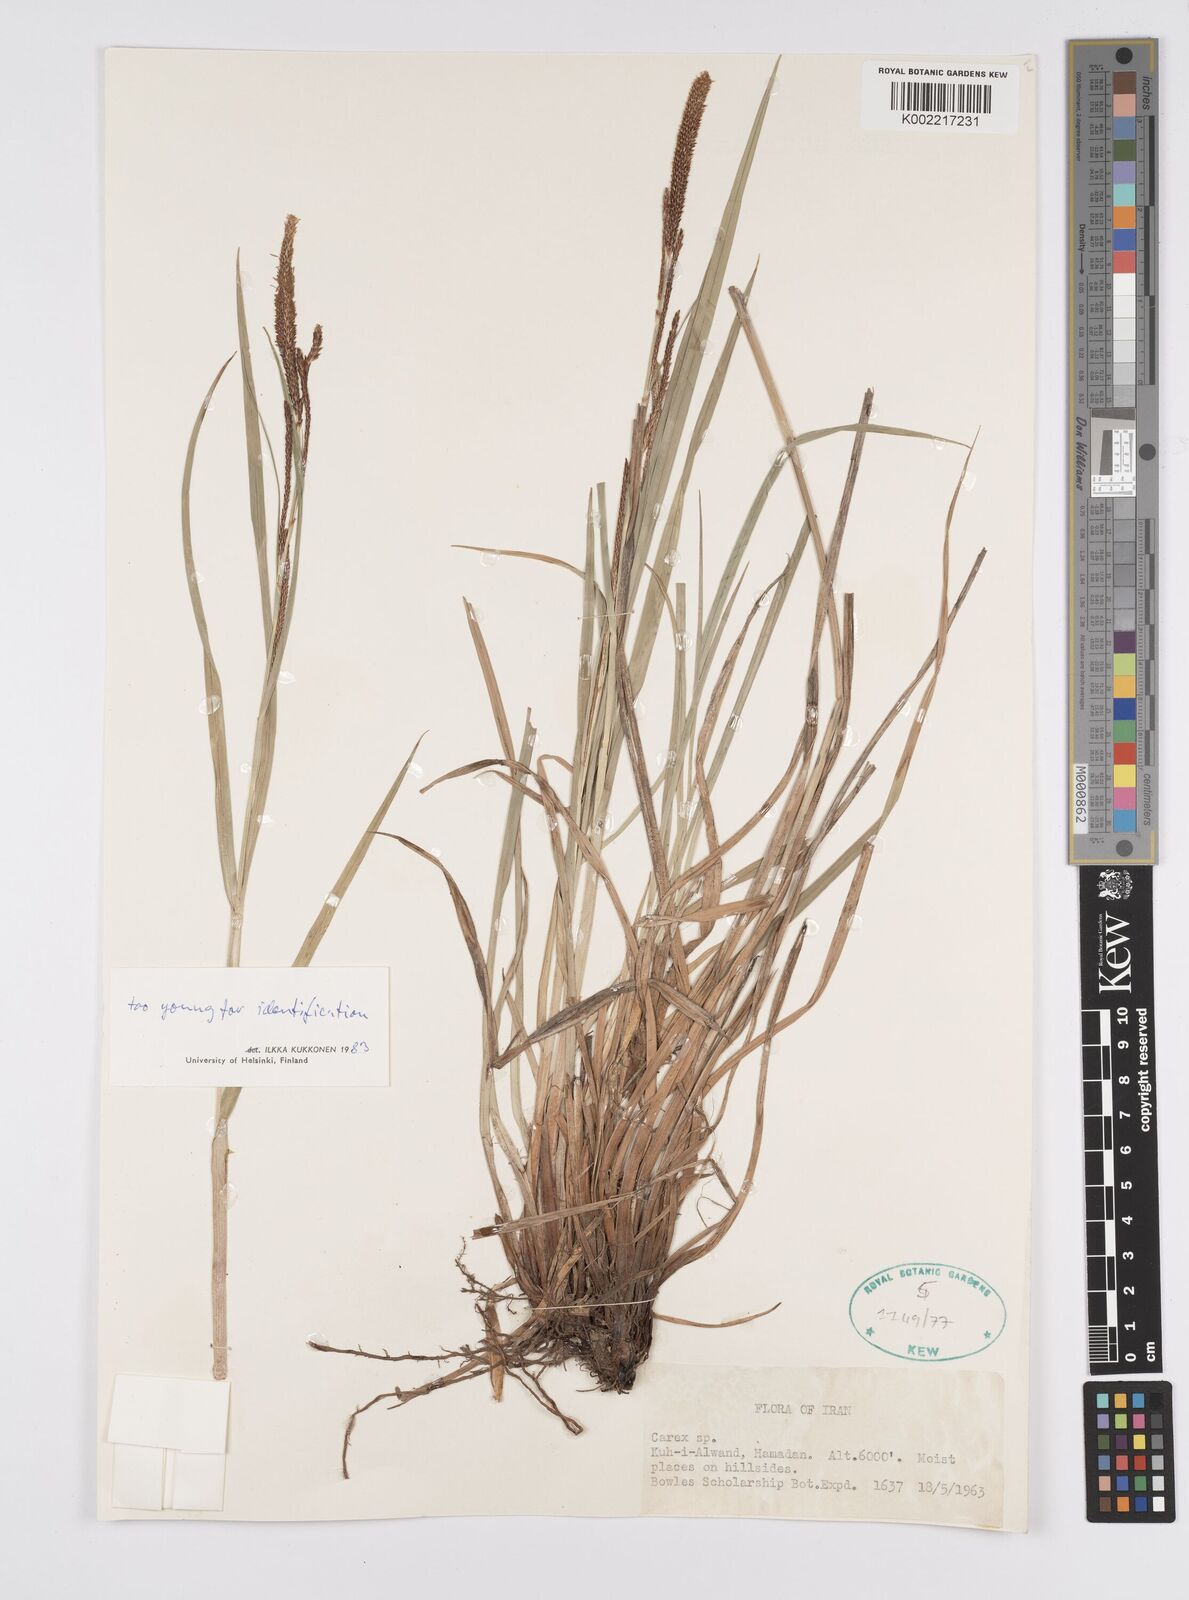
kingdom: Plantae
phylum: Tracheophyta
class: Liliopsida
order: Poales
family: Cyperaceae
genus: Carex
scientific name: Carex
